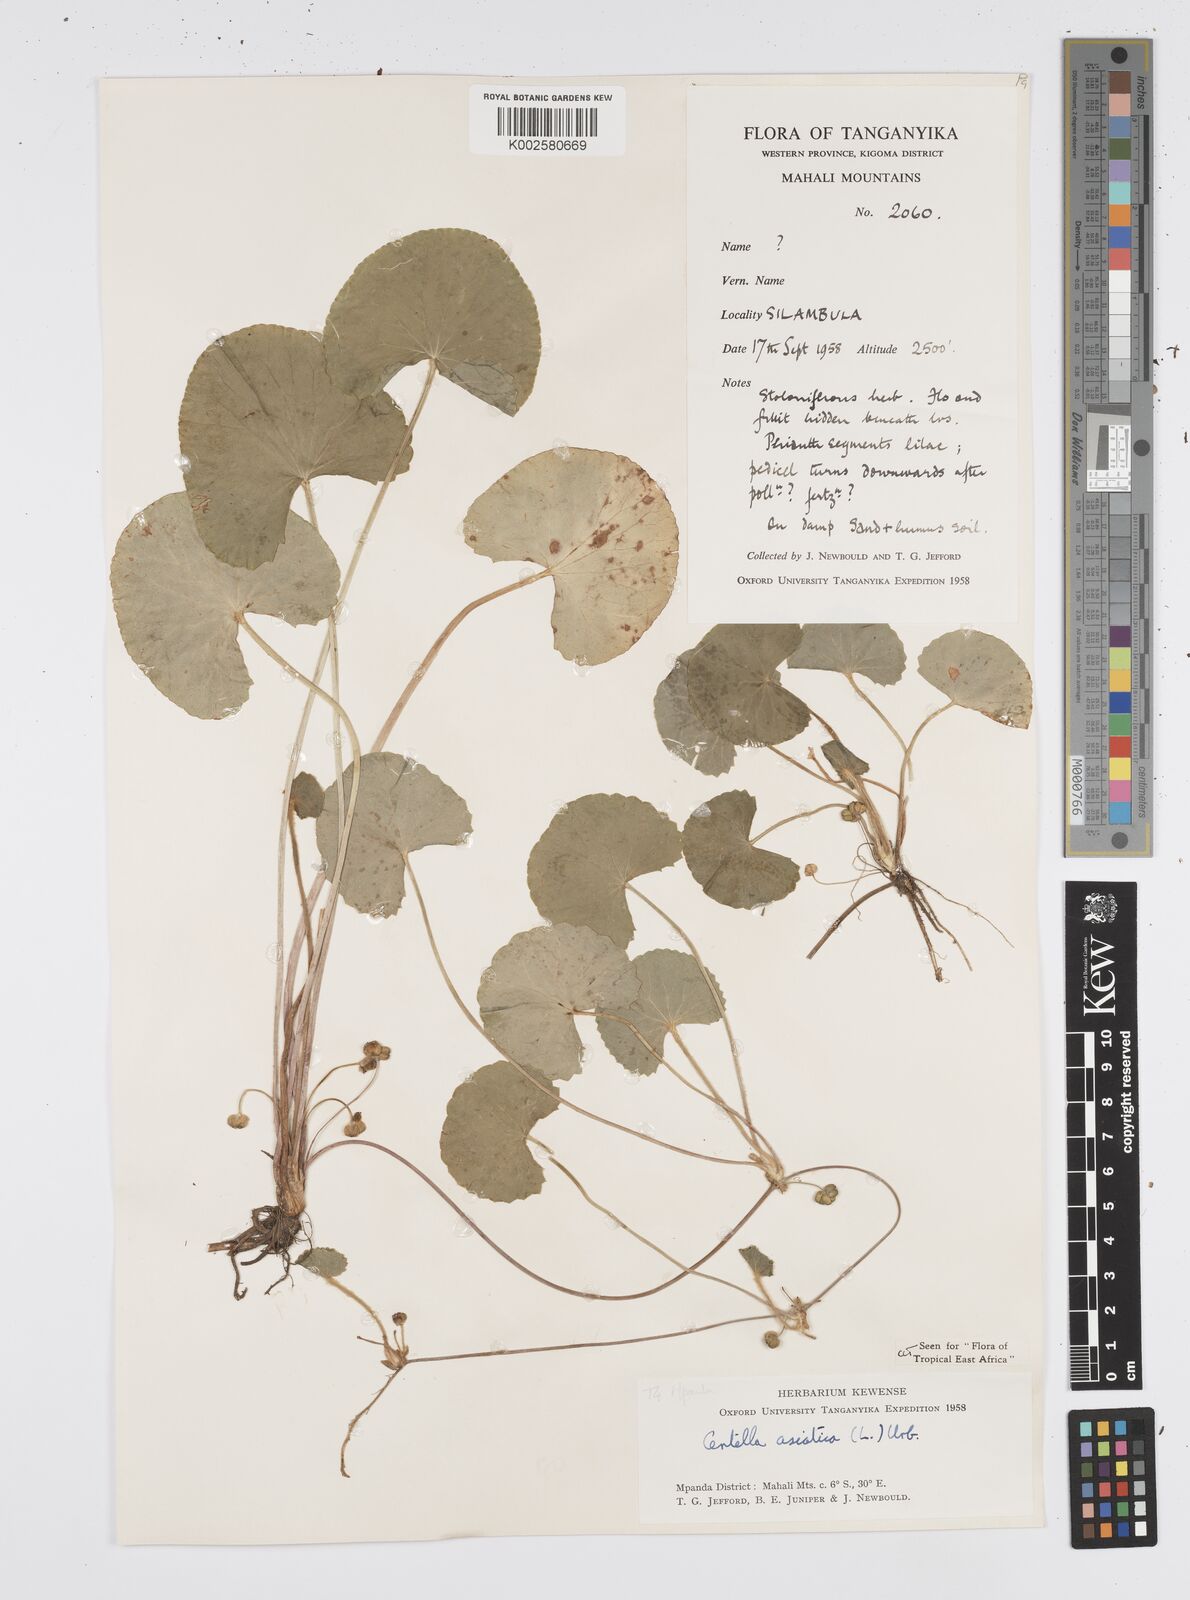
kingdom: Plantae
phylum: Tracheophyta
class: Magnoliopsida
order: Apiales
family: Apiaceae
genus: Centella
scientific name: Centella asiatica
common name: Spadeleaf
